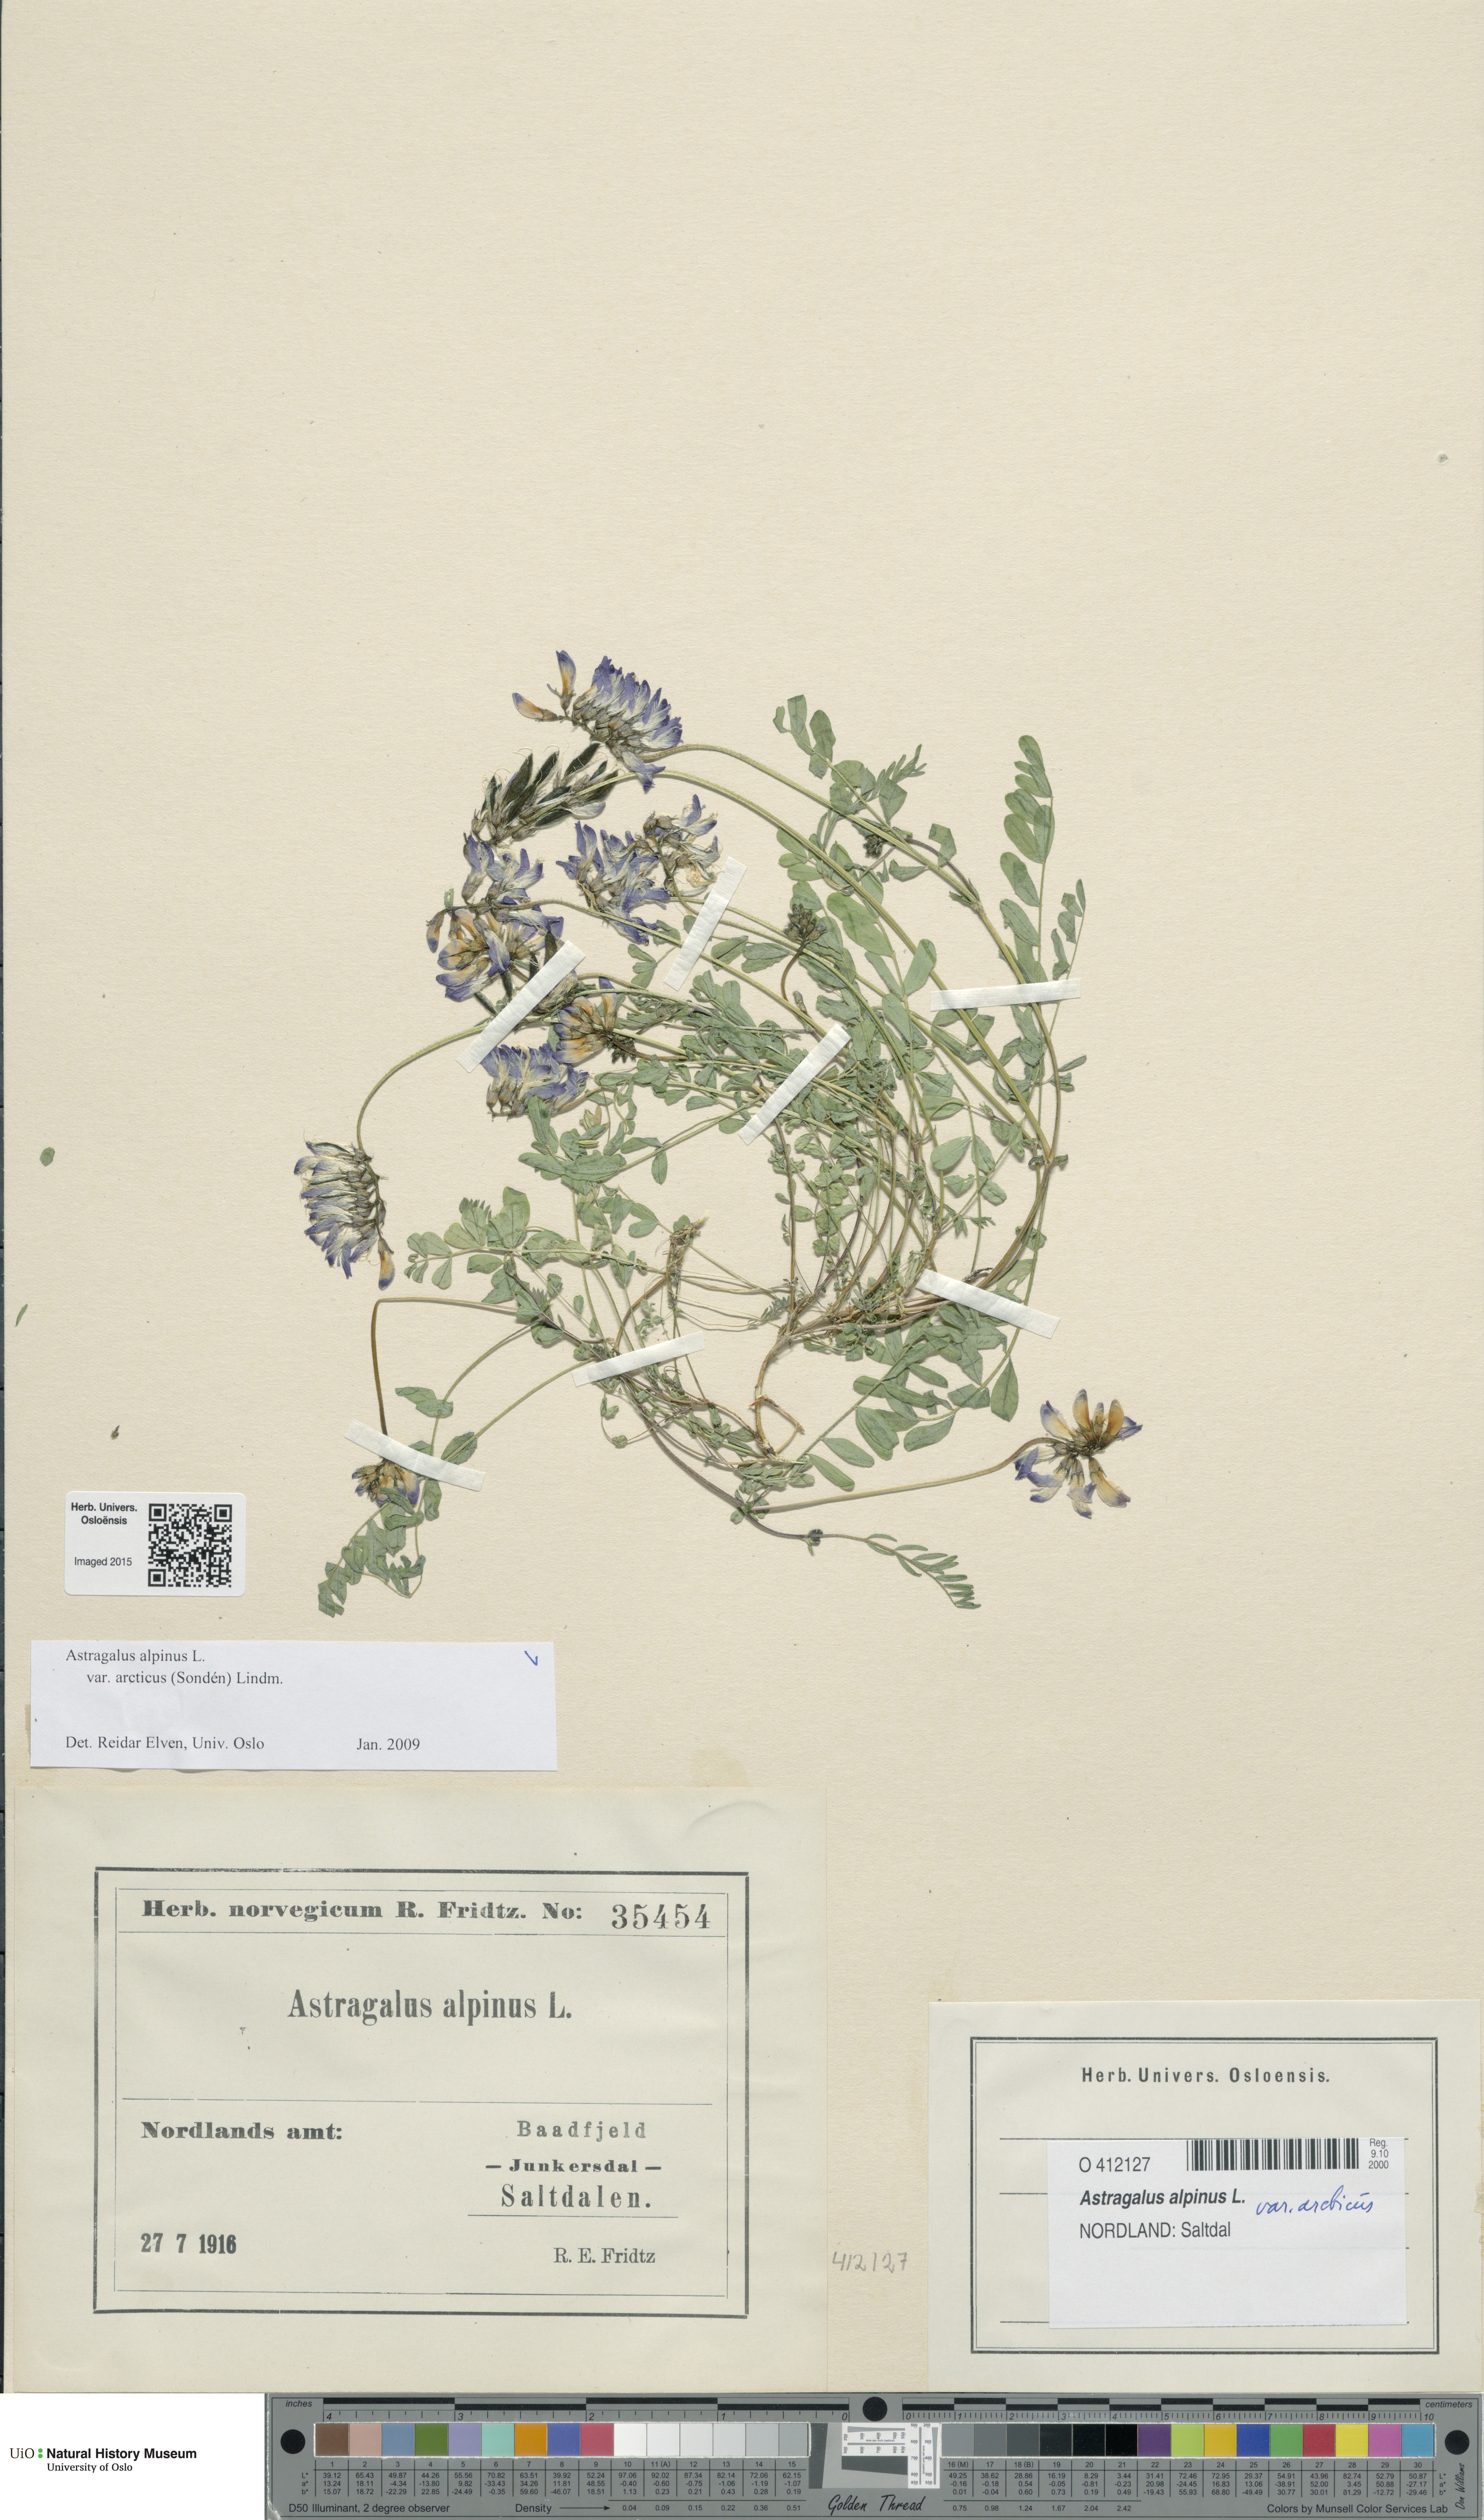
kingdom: Plantae
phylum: Tracheophyta
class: Magnoliopsida
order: Fabales
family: Fabaceae
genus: Astragalus
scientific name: Astragalus norvegicus
